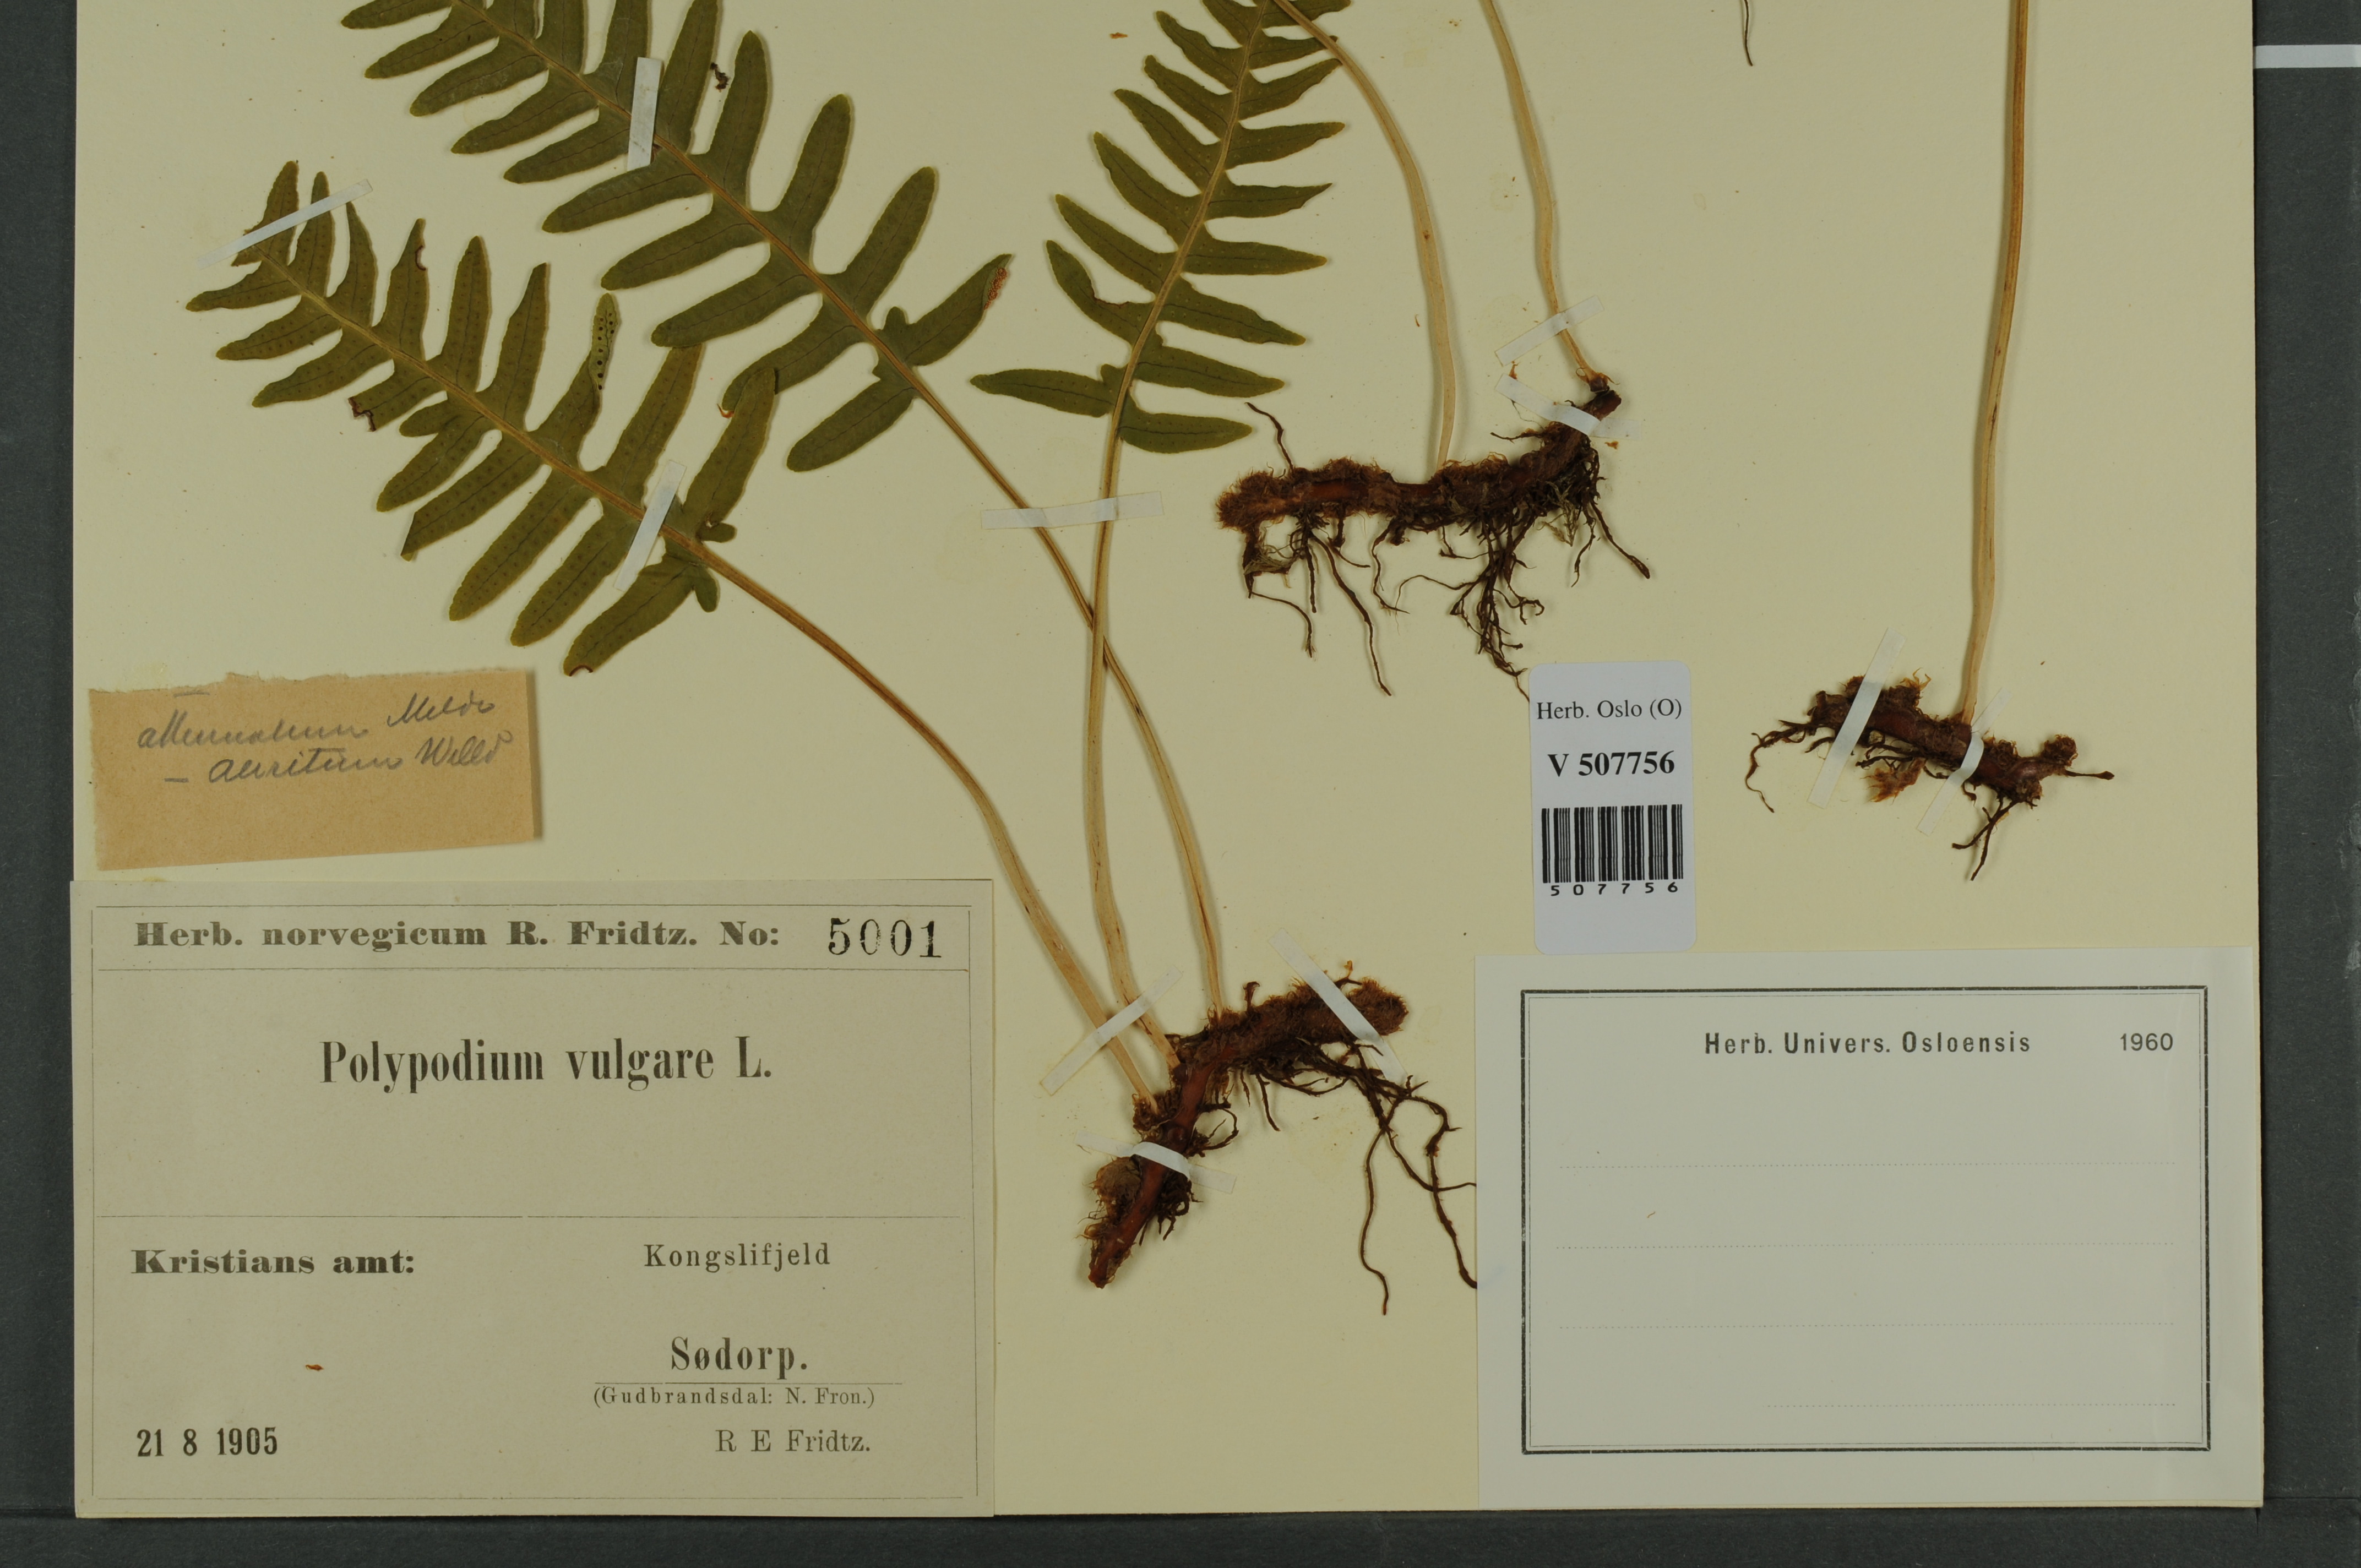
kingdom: Plantae
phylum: Tracheophyta
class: Polypodiopsida
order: Polypodiales
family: Polypodiaceae
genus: Polypodium
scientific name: Polypodium vulgare
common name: Common polypody
